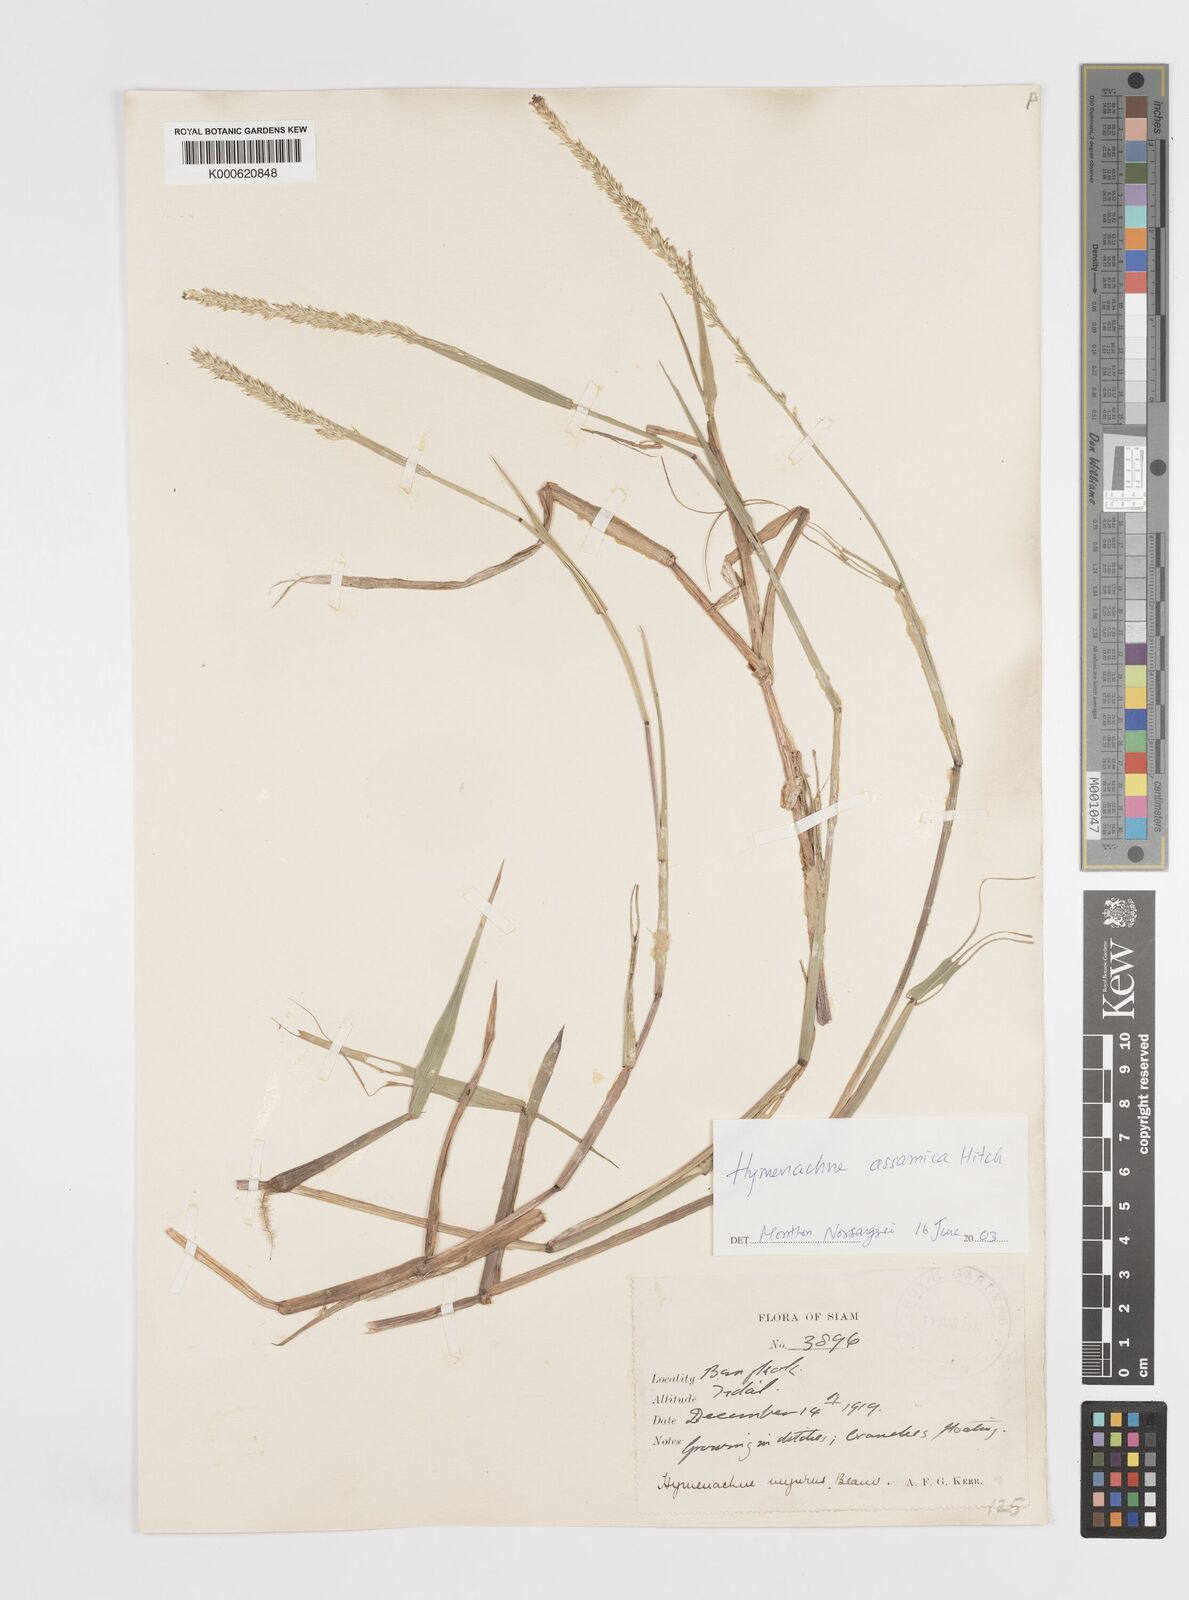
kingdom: Plantae
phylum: Tracheophyta
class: Liliopsida
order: Poales
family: Poaceae
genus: Hymenachne
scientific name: Hymenachne assamica
